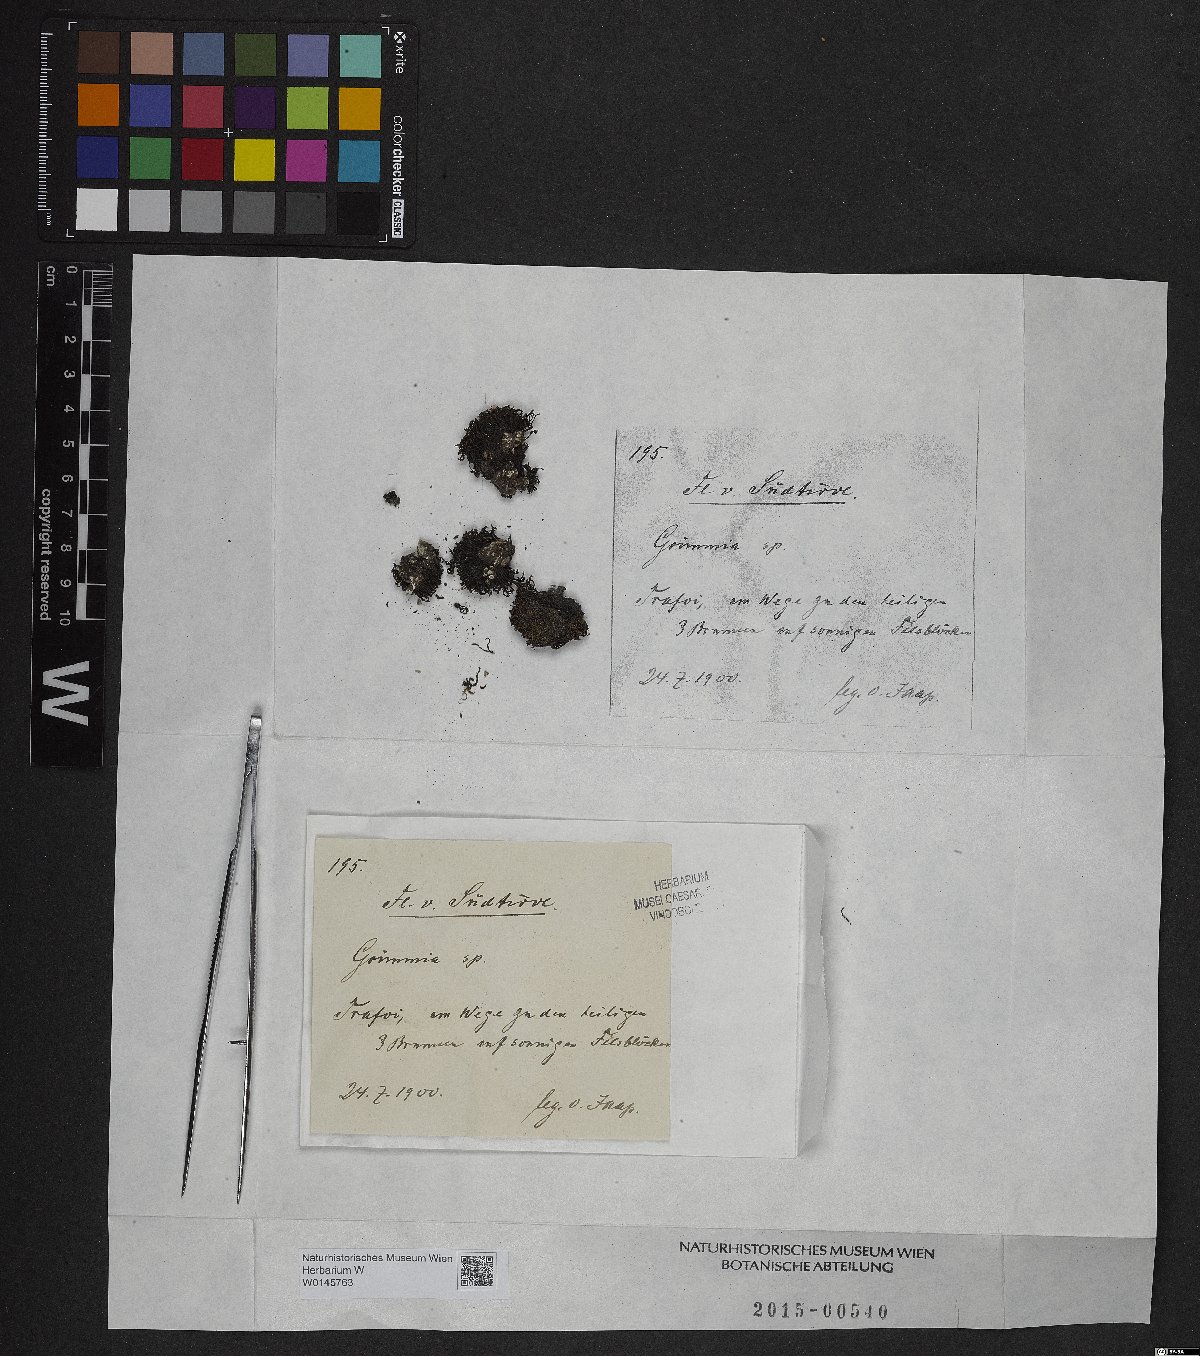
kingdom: Plantae
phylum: Bryophyta
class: Bryopsida
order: Grimmiales
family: Grimmiaceae
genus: Grimmia
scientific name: Grimmia
